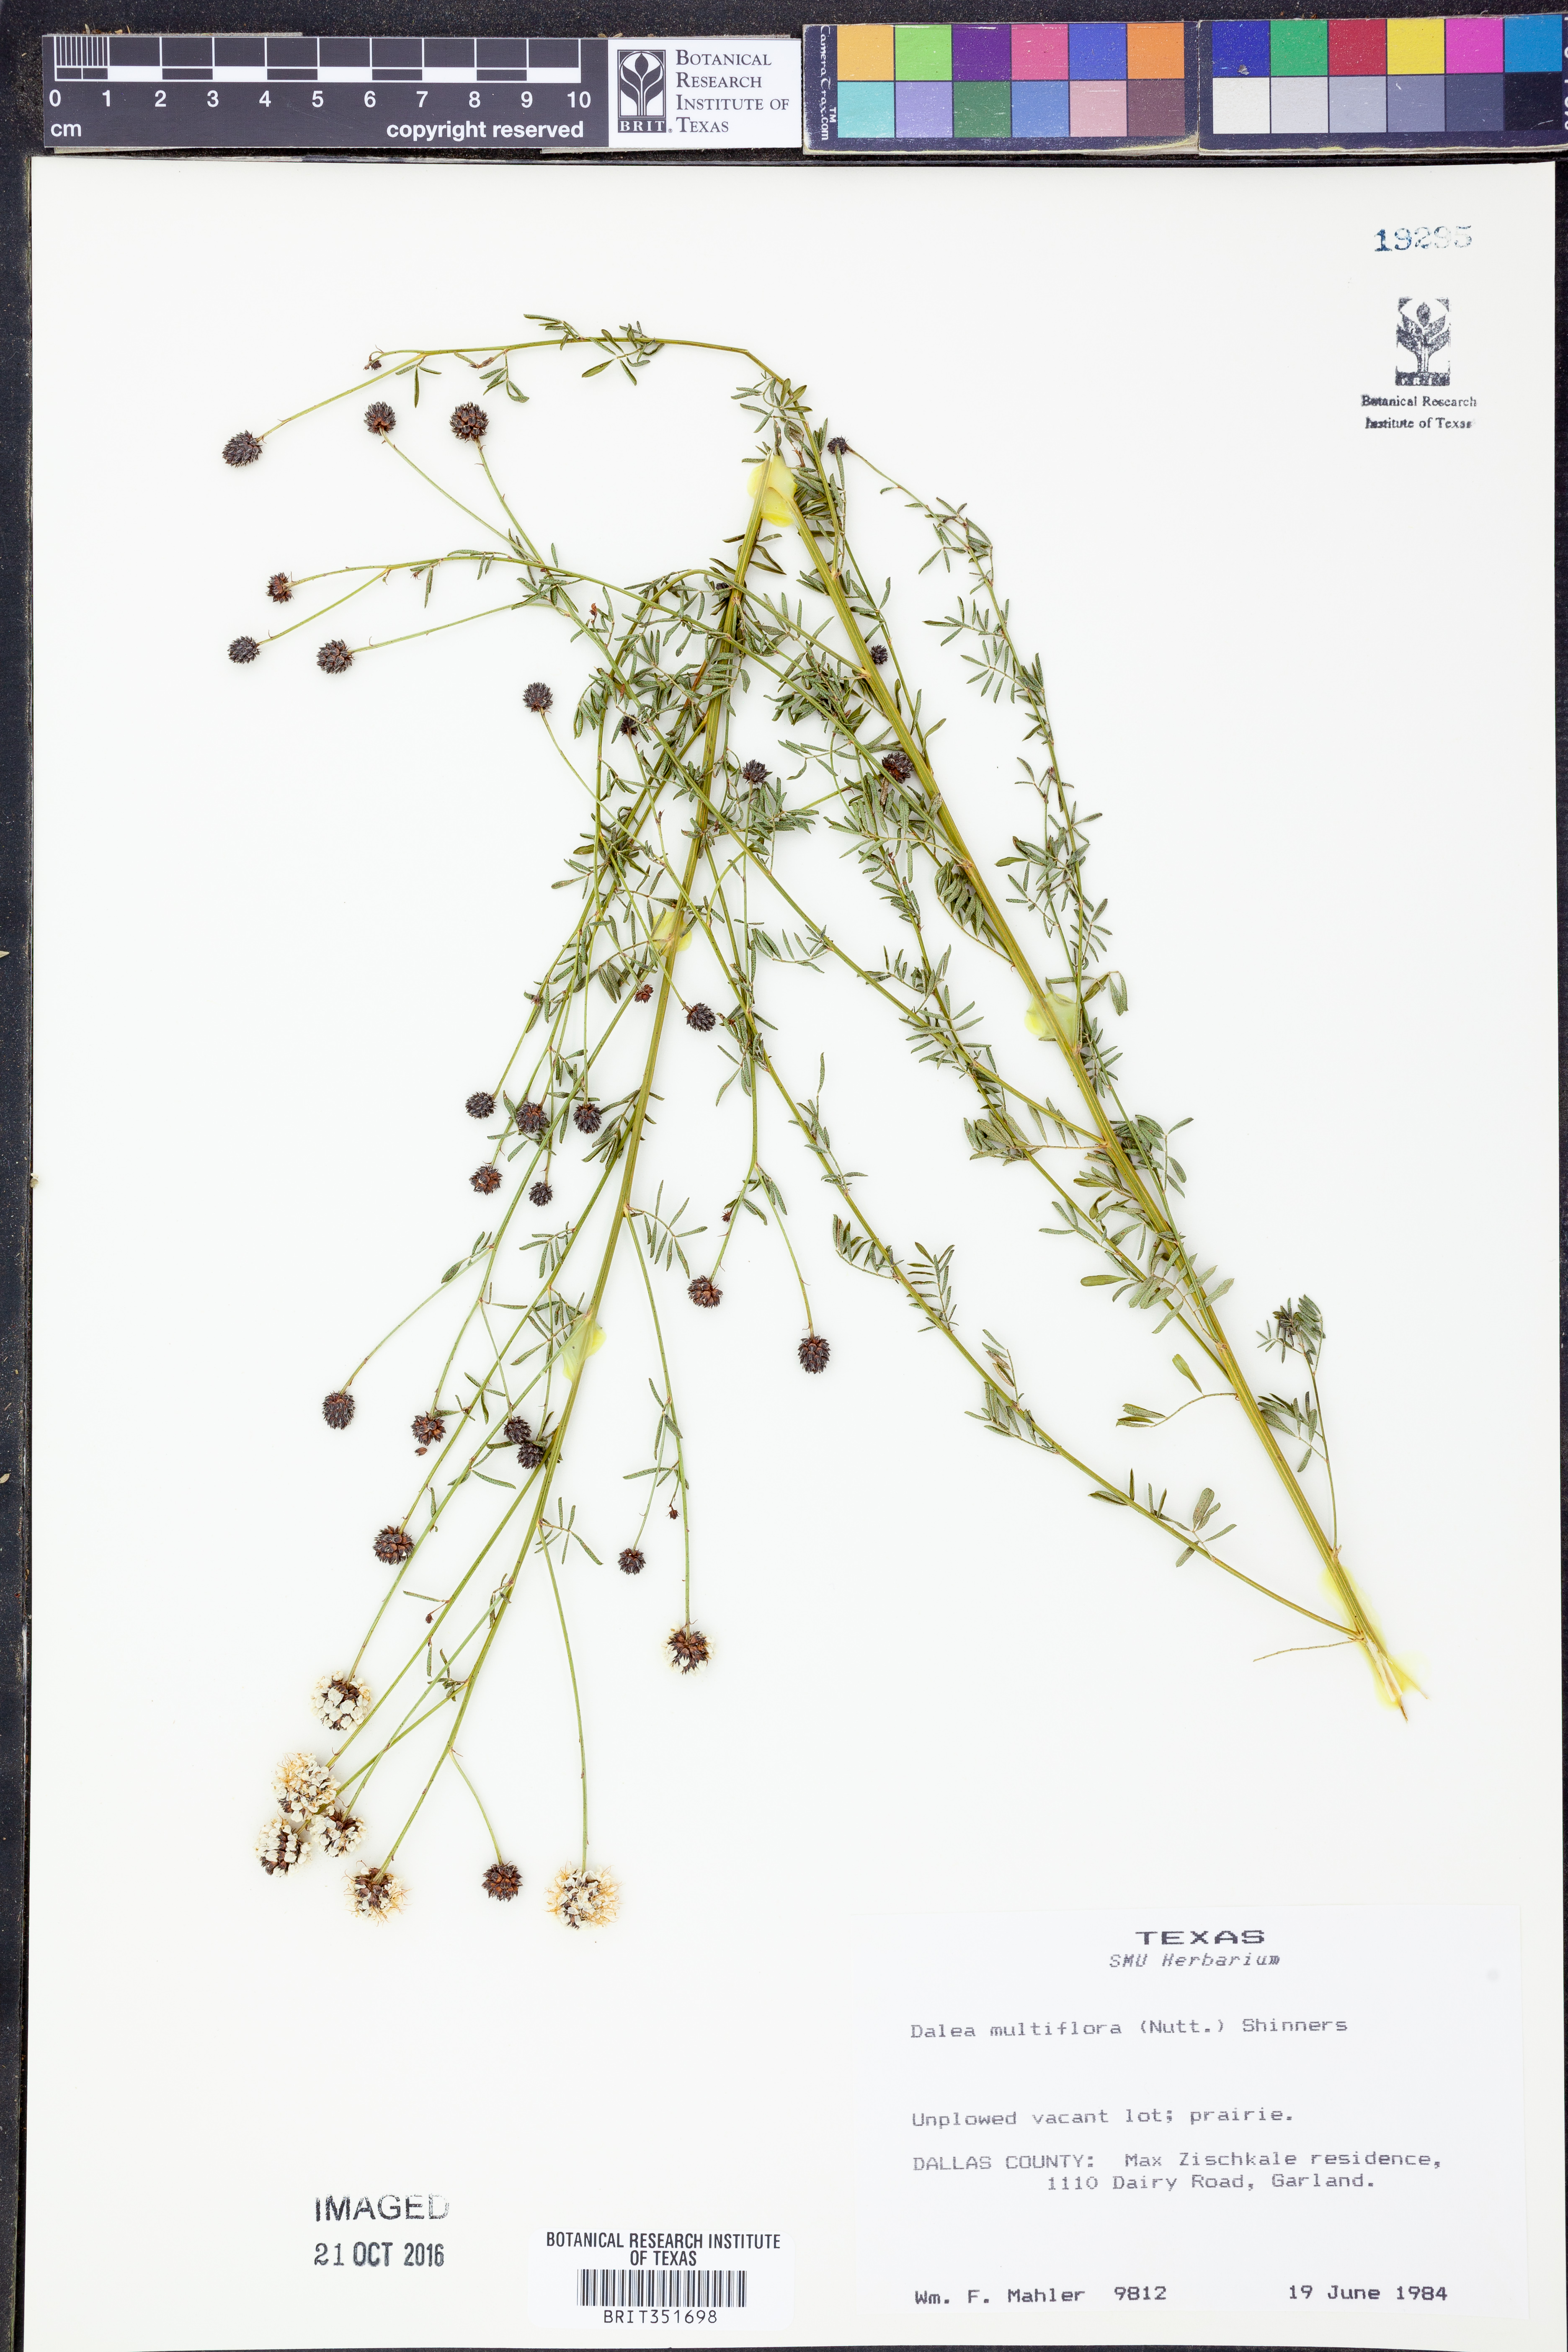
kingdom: Plantae
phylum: Tracheophyta
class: Magnoliopsida
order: Fabales
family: Fabaceae
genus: Dalea
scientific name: Dalea multiflora
